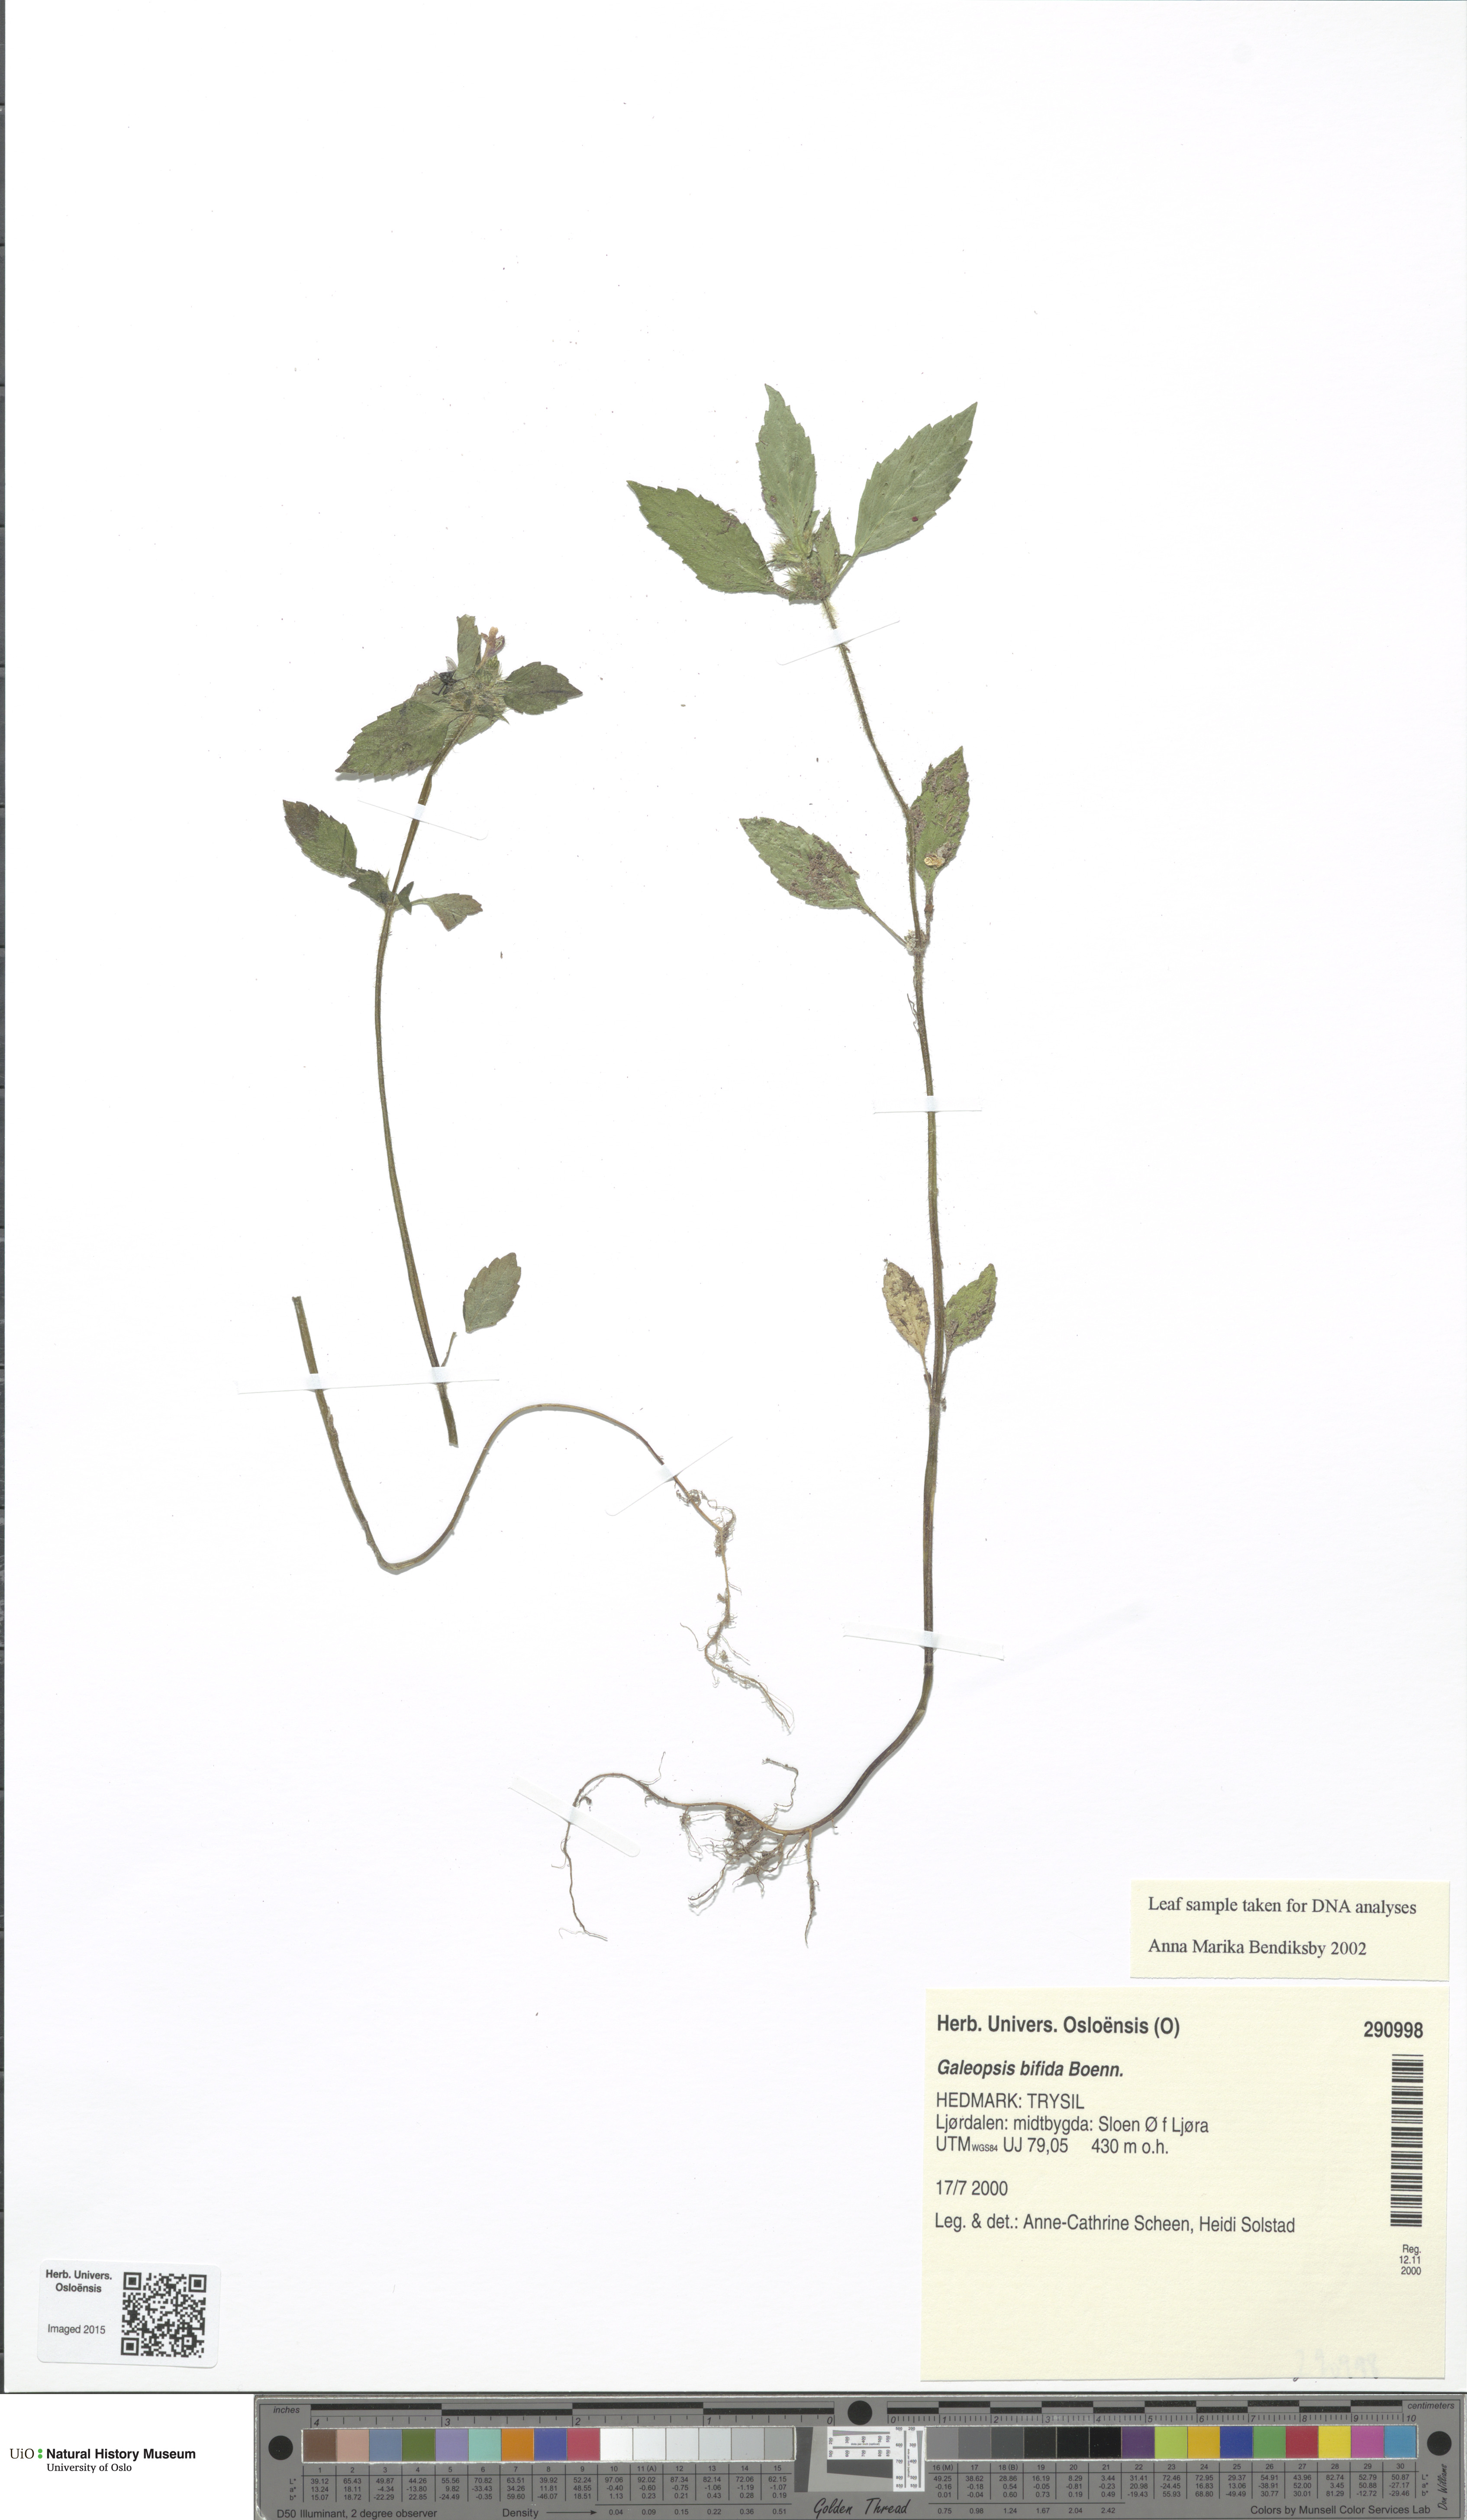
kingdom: Plantae
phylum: Tracheophyta
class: Magnoliopsida
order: Lamiales
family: Lamiaceae
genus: Galeopsis
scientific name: Galeopsis bifida
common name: Bifid hemp-nettle
